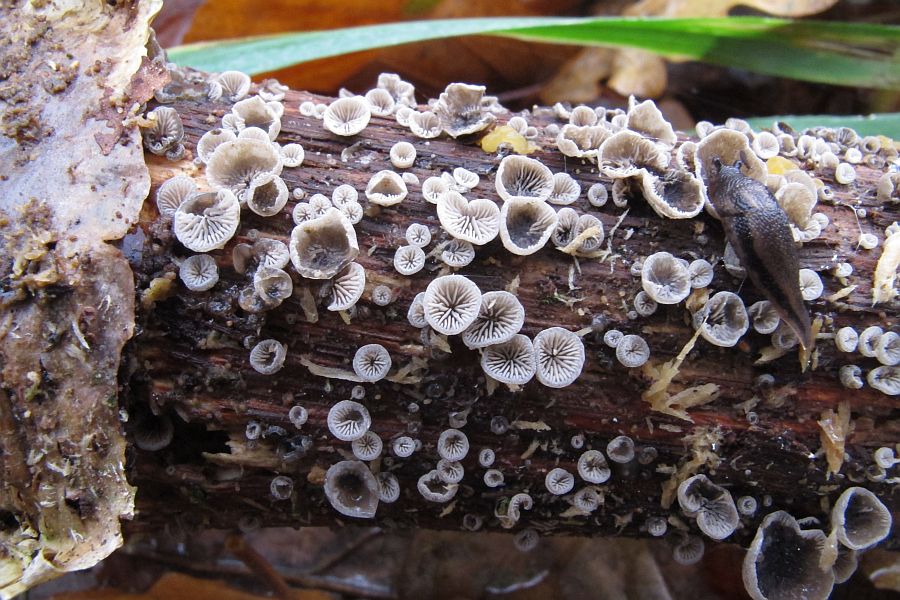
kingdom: Fungi
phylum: Basidiomycota
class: Agaricomycetes
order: Agaricales
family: Pleurotaceae
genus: Resupinatus
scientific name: Resupinatus applicatus
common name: lysfiltet barkhat
